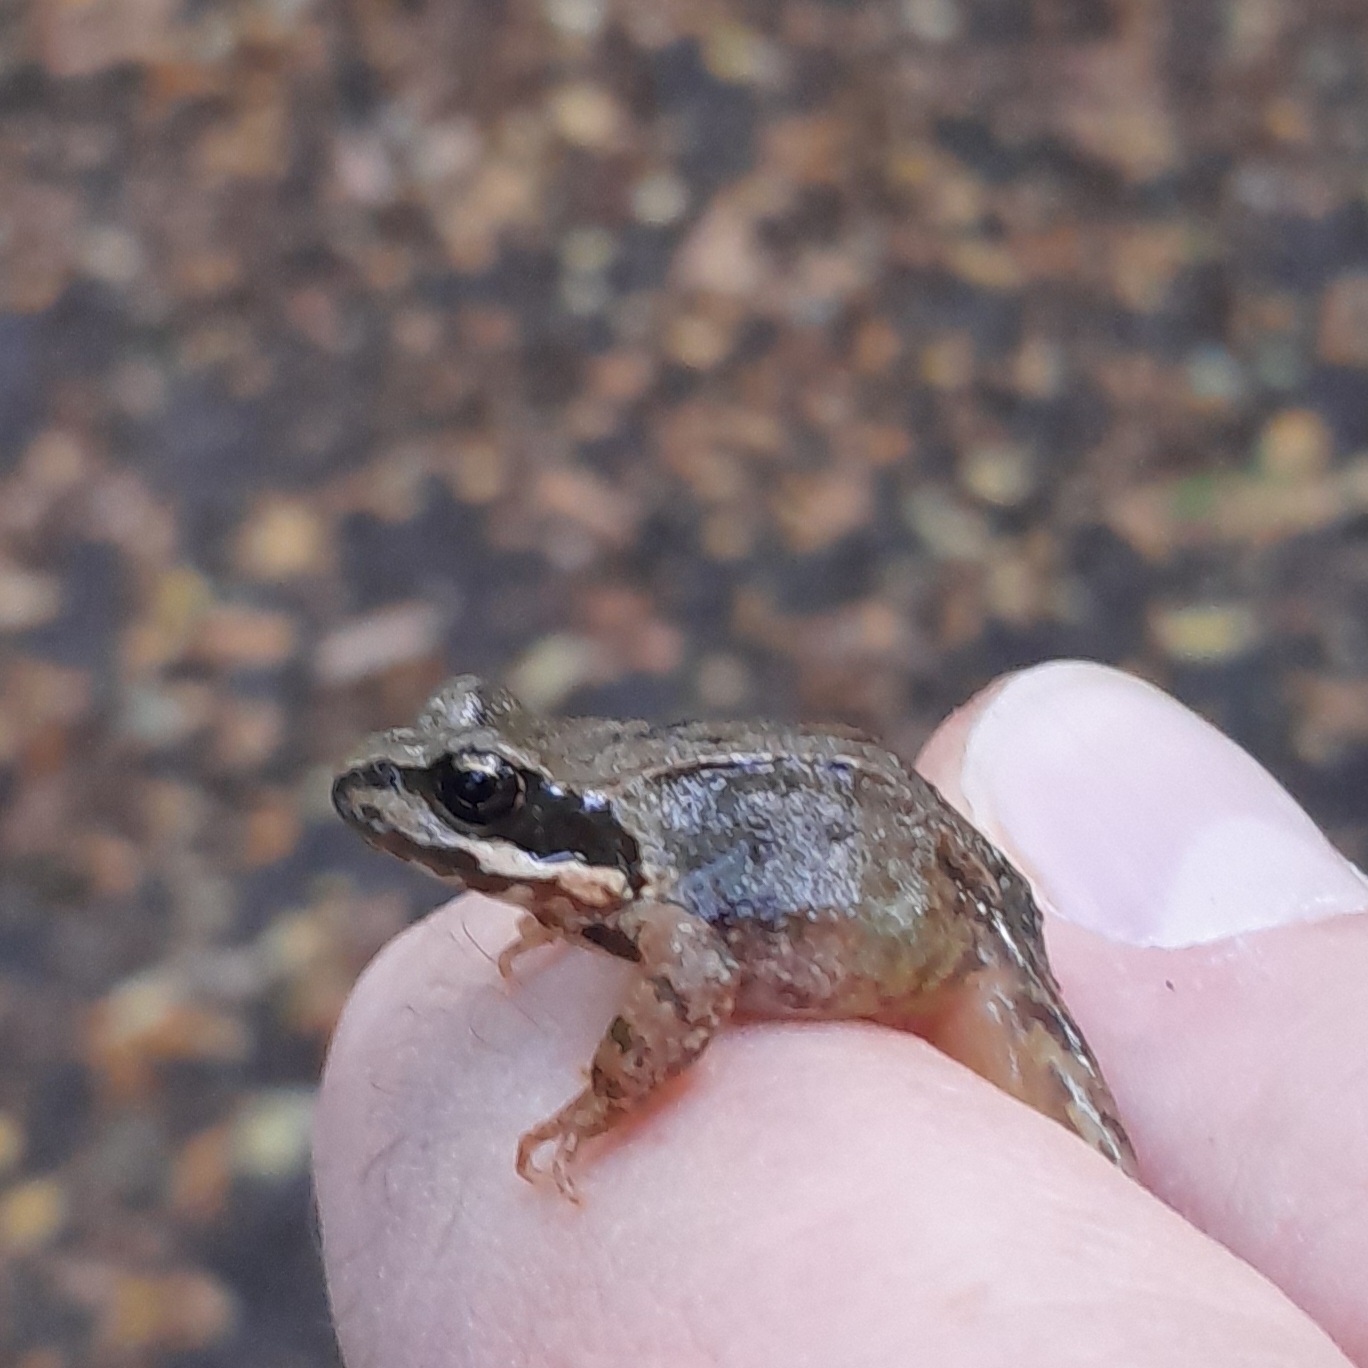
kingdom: Animalia
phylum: Chordata
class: Amphibia
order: Anura
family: Ranidae
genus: Rana
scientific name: Rana temporaria
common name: Butsnudet frø
